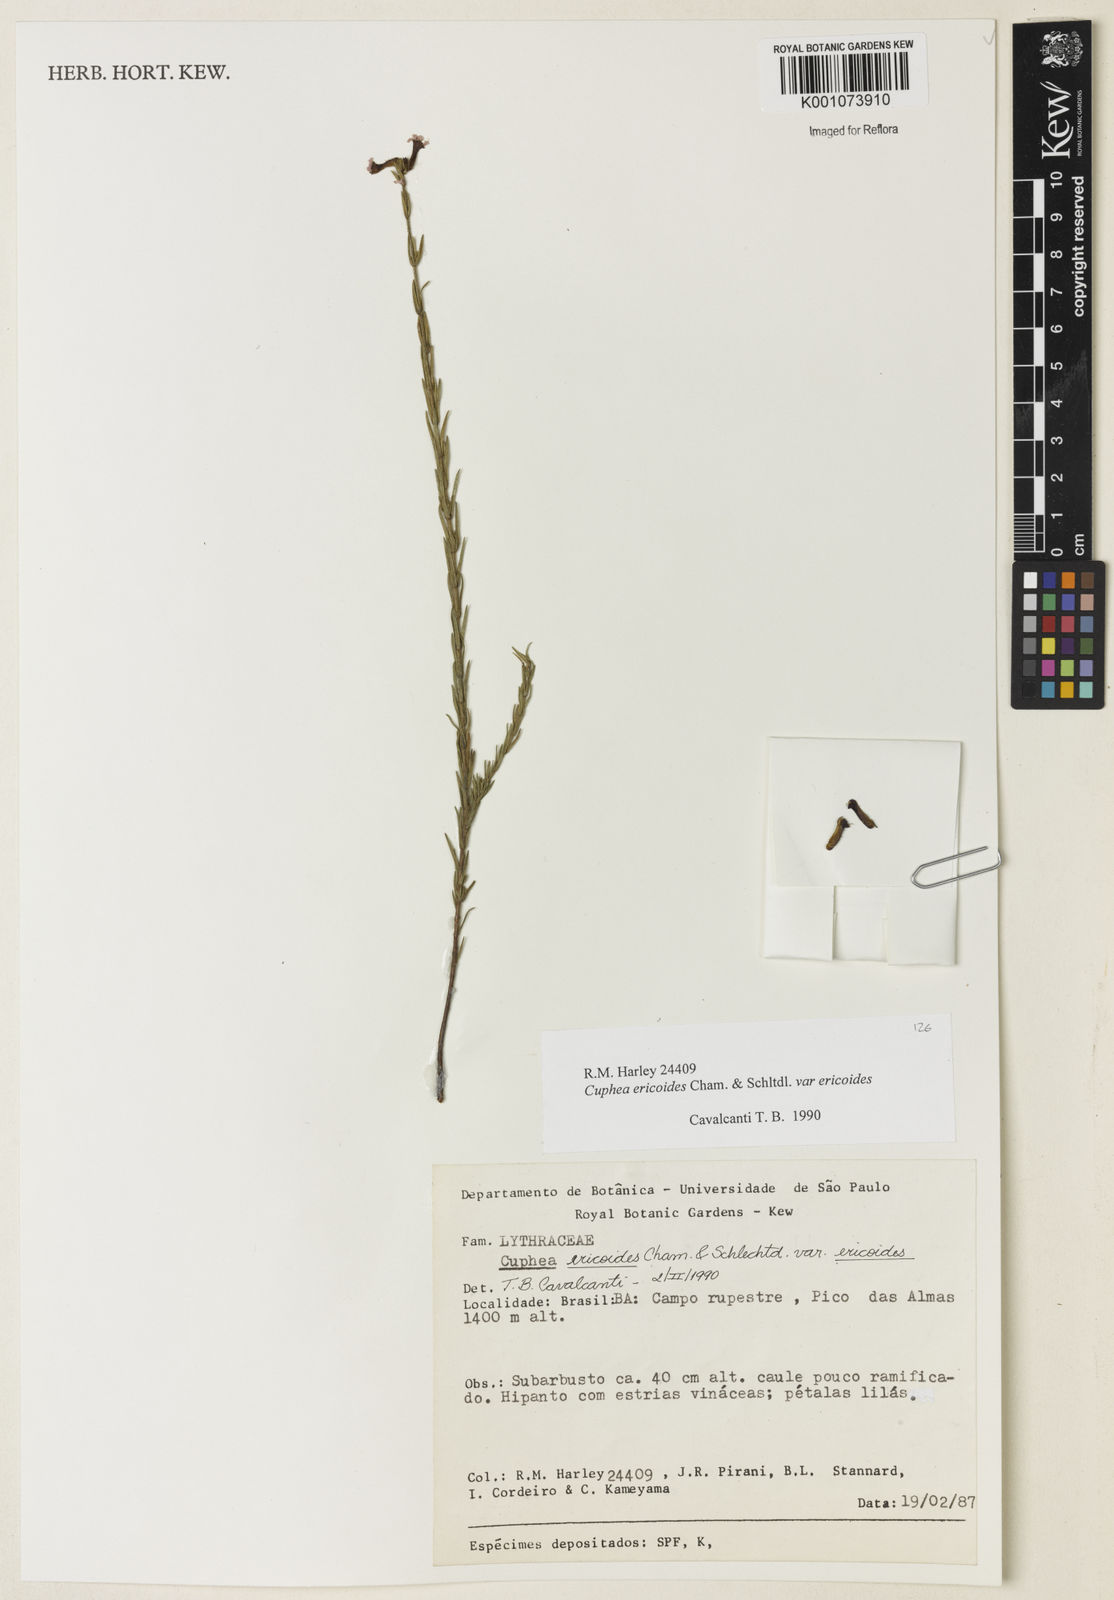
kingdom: Plantae
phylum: Tracheophyta
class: Magnoliopsida
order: Myrtales
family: Lythraceae
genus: Cuphea
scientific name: Cuphea ericoides
